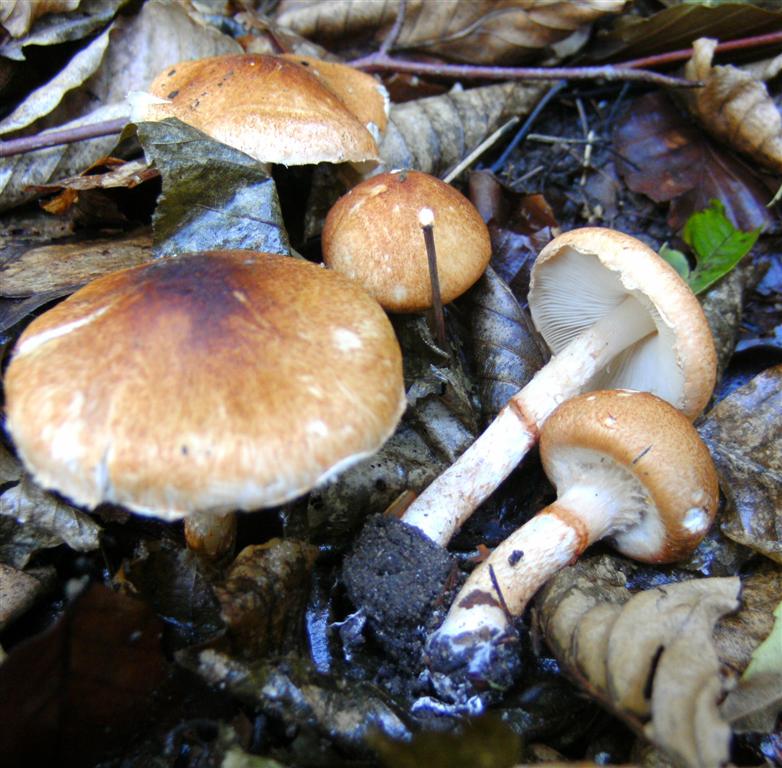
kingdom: Fungi
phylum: Basidiomycota
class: Agaricomycetes
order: Agaricales
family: Agaricaceae
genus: Leucocoprinus
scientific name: Leucocoprinus straminellus
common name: rustbrun parasolhat
